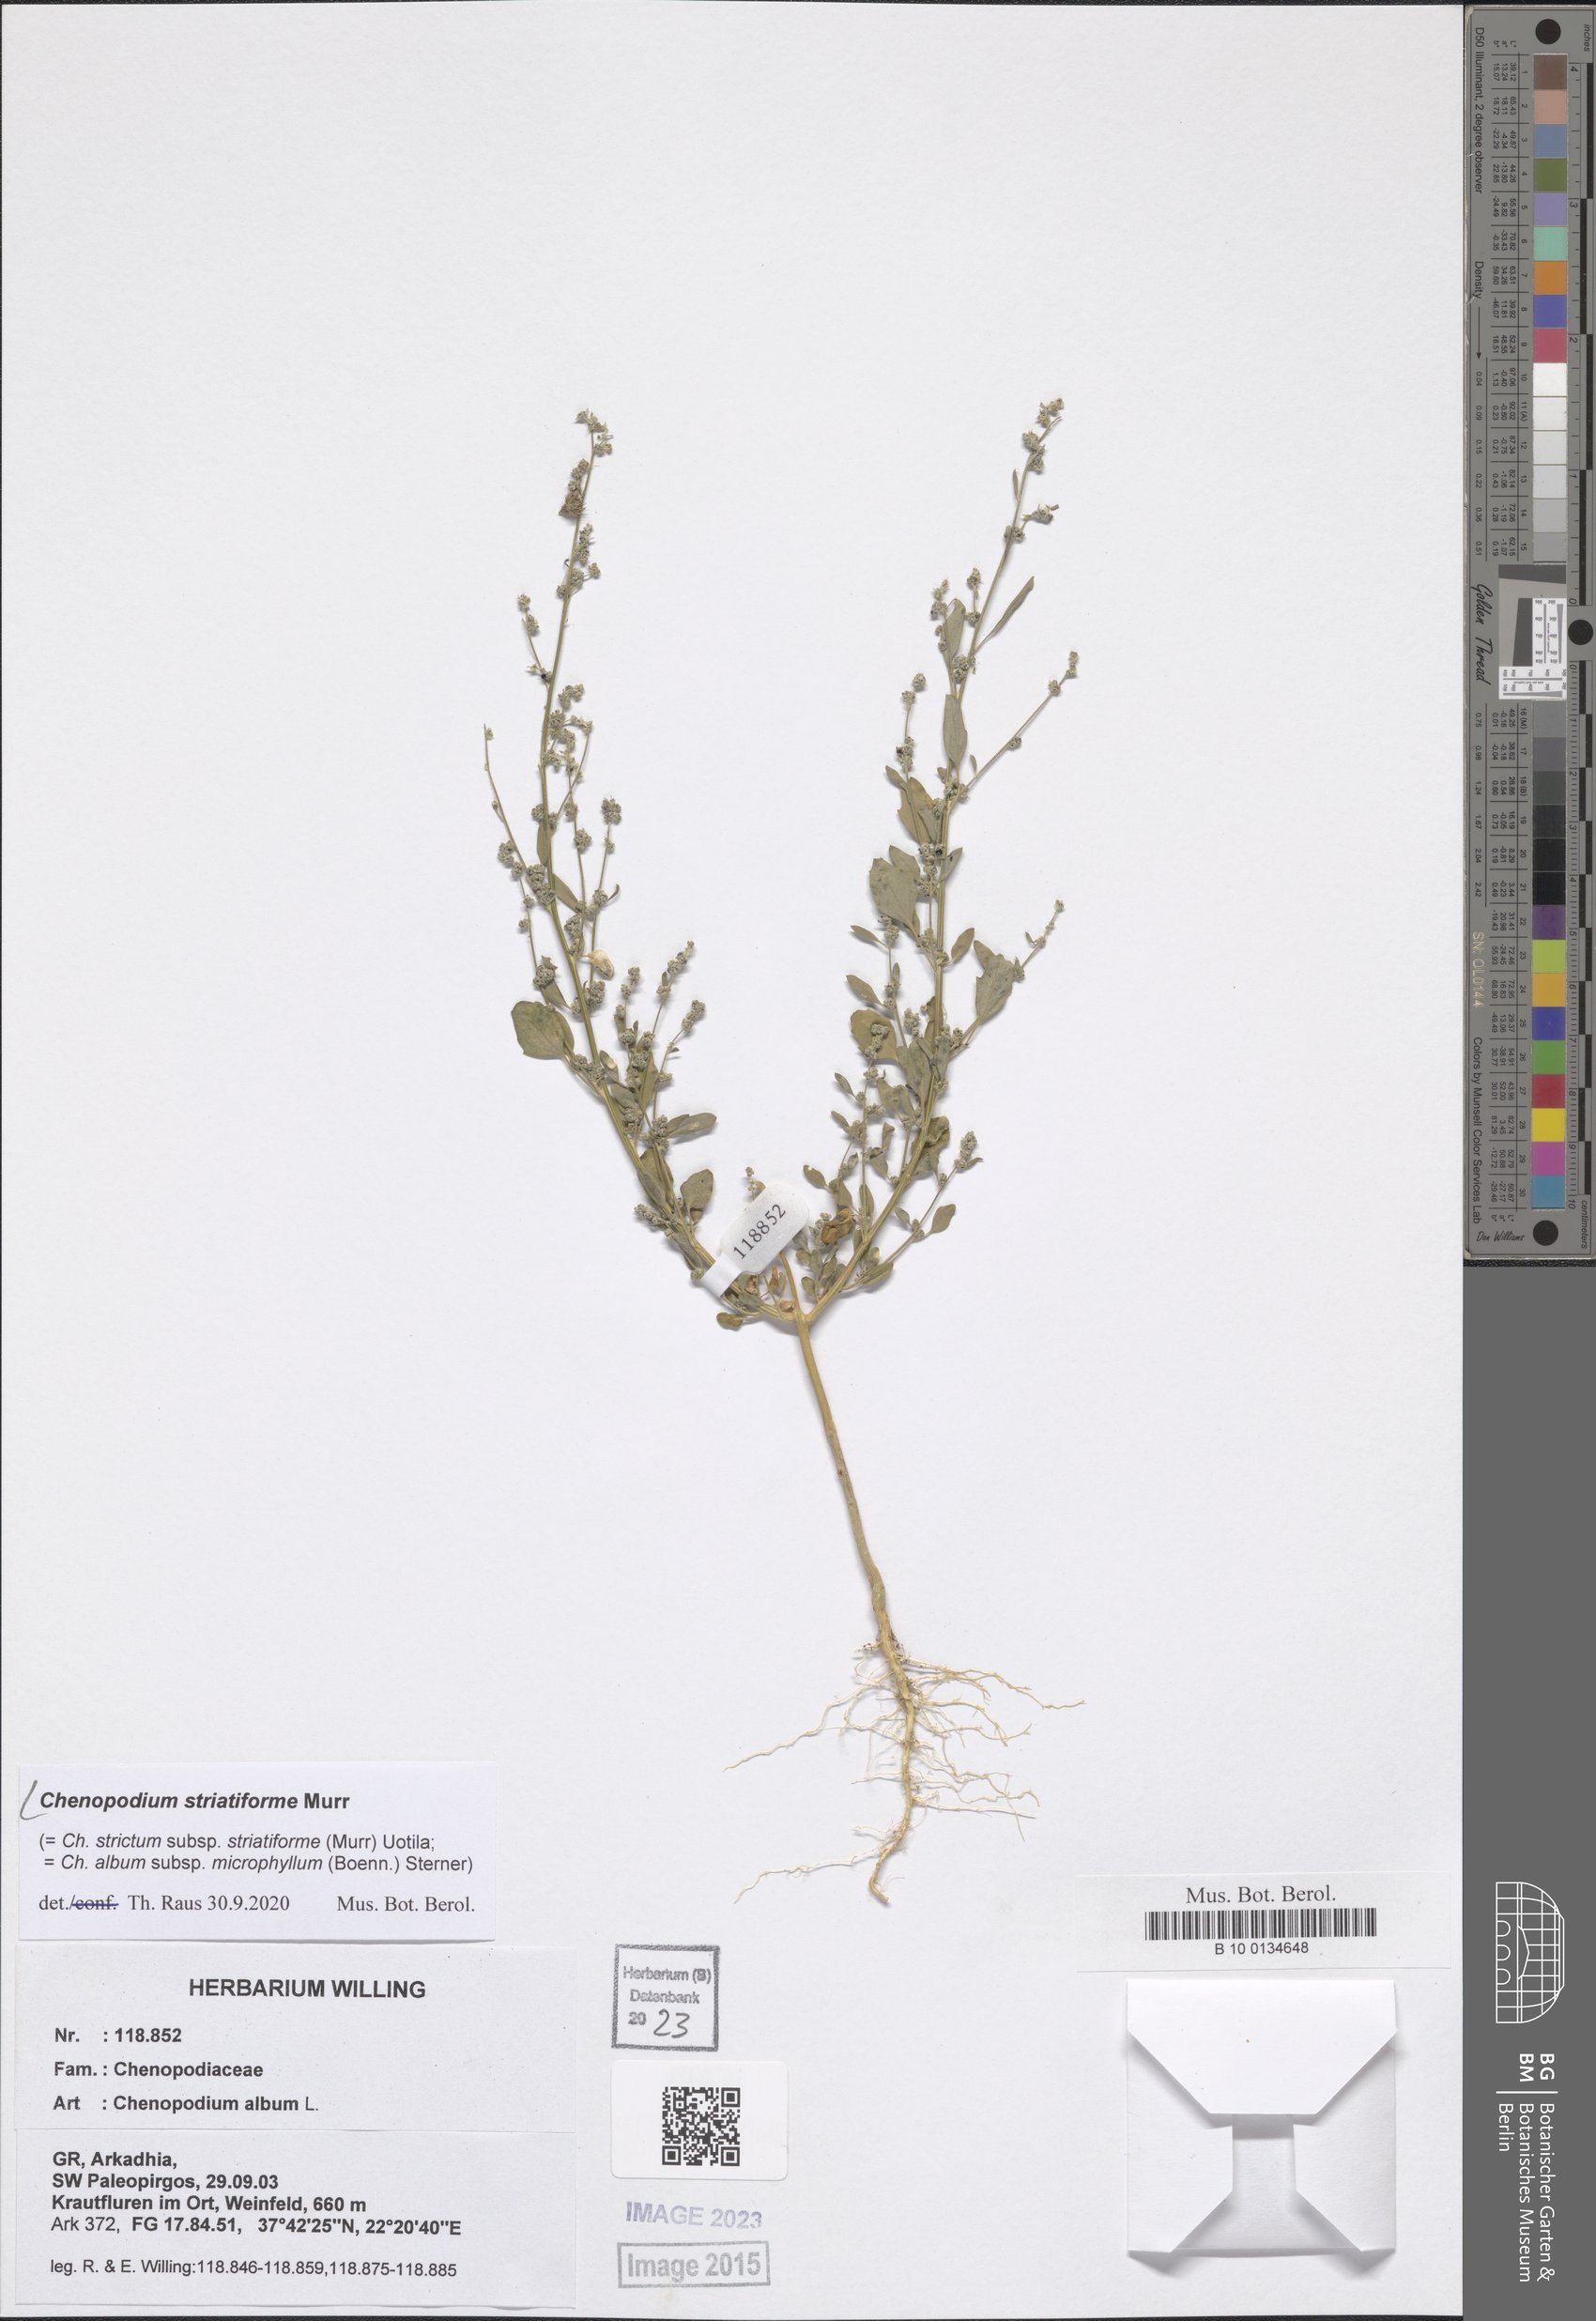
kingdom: Plantae
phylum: Tracheophyta
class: Magnoliopsida
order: Caryophyllales
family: Amaranthaceae
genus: Chenopodium
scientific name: Chenopodium striatiforme
